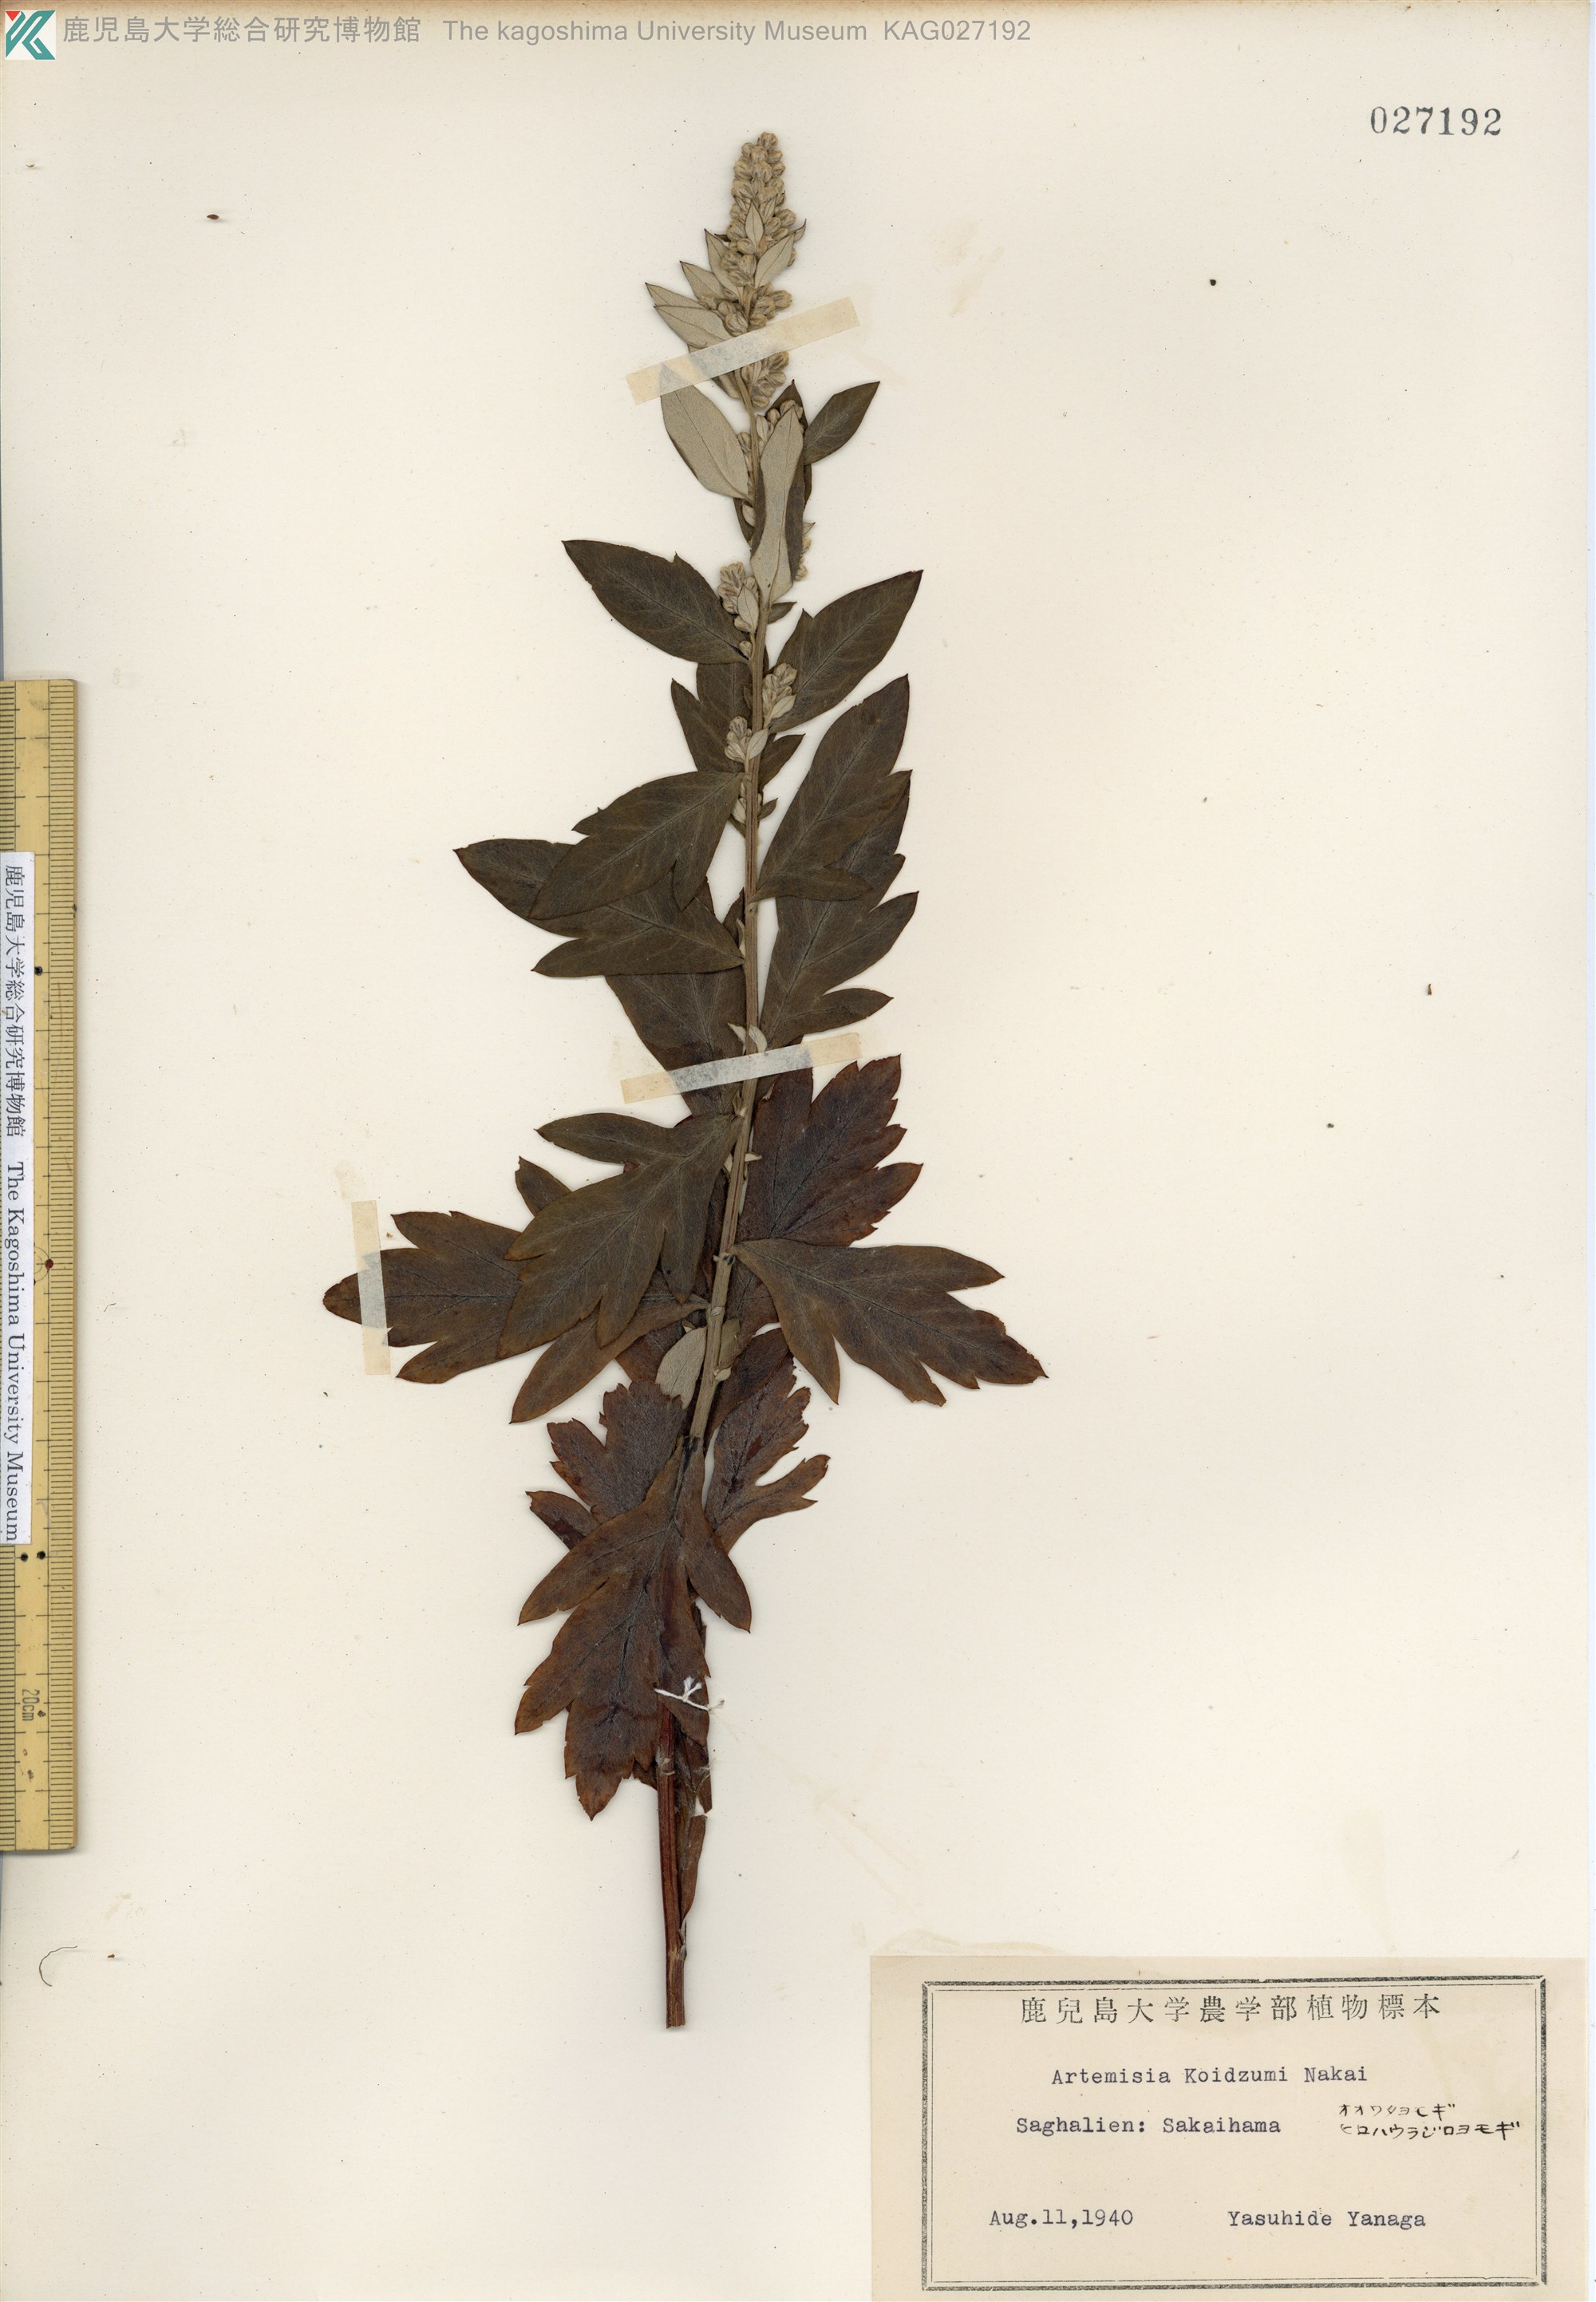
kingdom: Plantae
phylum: Tracheophyta
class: Magnoliopsida
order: Asterales
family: Asteraceae
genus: Artemisia
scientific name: Artemisia koidzumii
